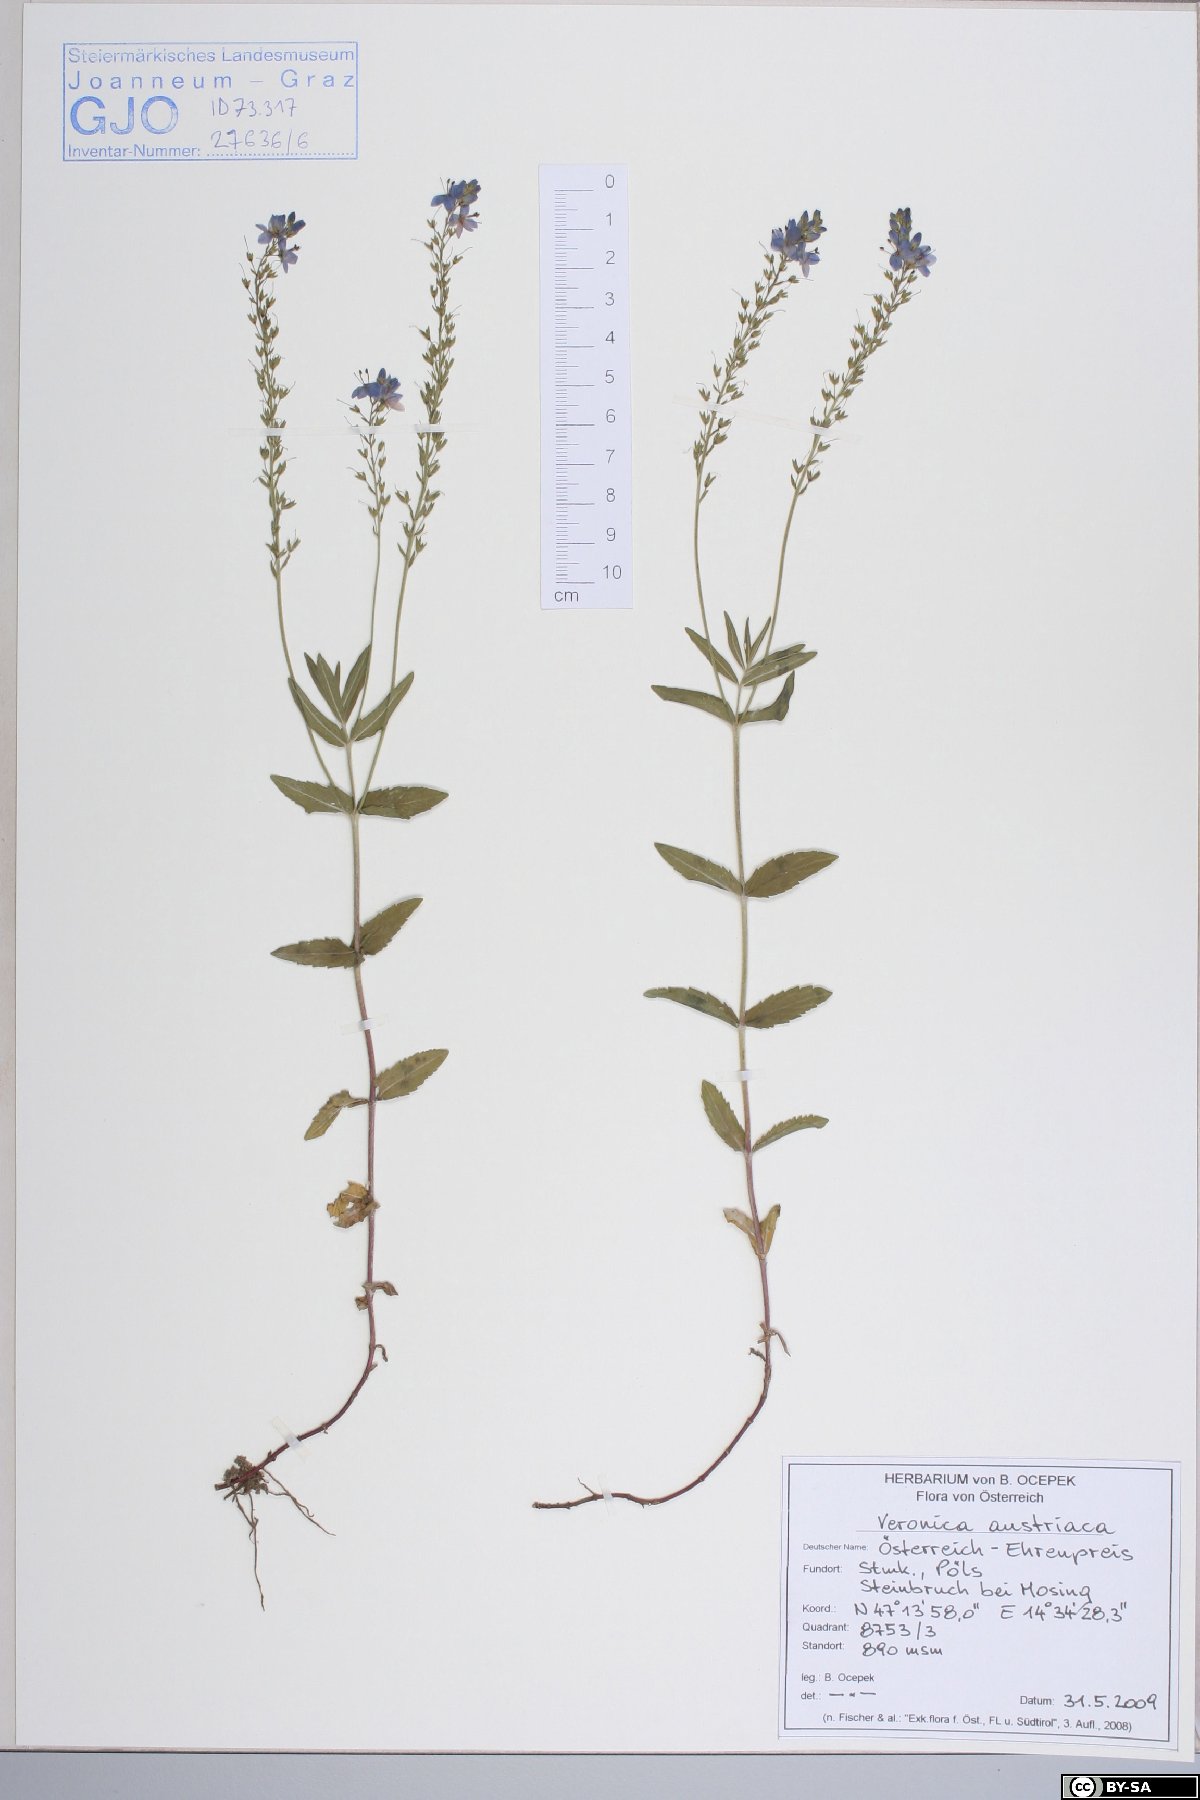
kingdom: Plantae
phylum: Tracheophyta
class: Magnoliopsida
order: Lamiales
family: Plantaginaceae
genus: Veronica
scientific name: Veronica austriaca
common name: Large speedwell
